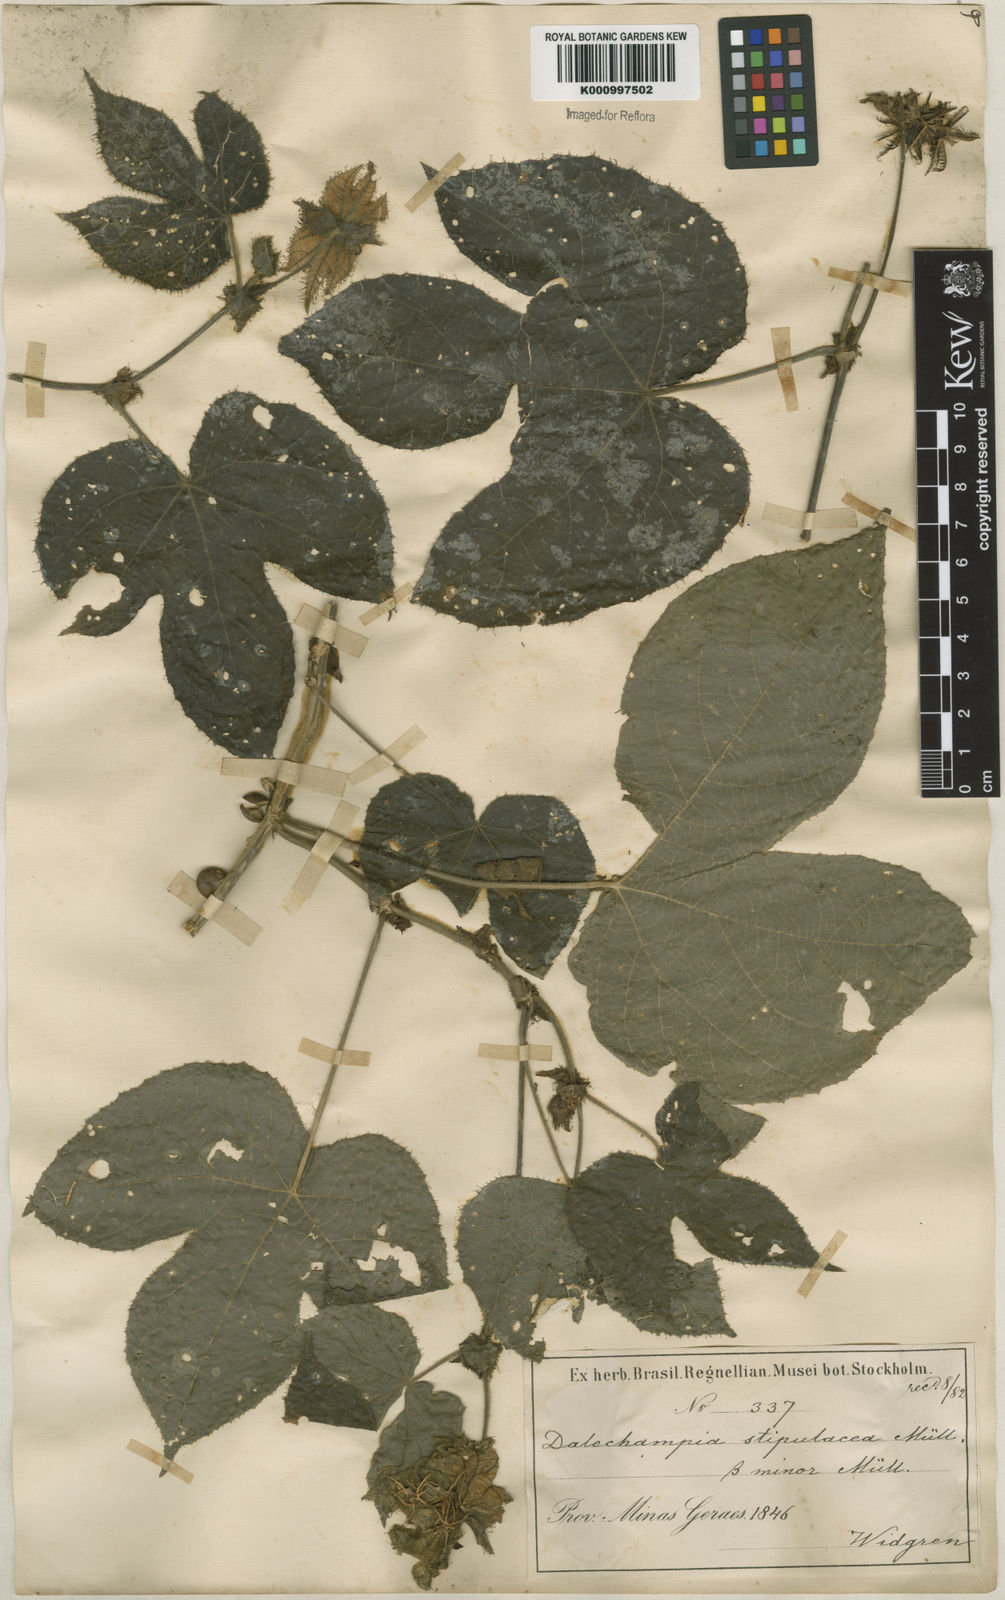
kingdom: Plantae
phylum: Tracheophyta
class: Magnoliopsida
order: Malpighiales
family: Euphorbiaceae
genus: Dalechampia
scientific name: Dalechampia
